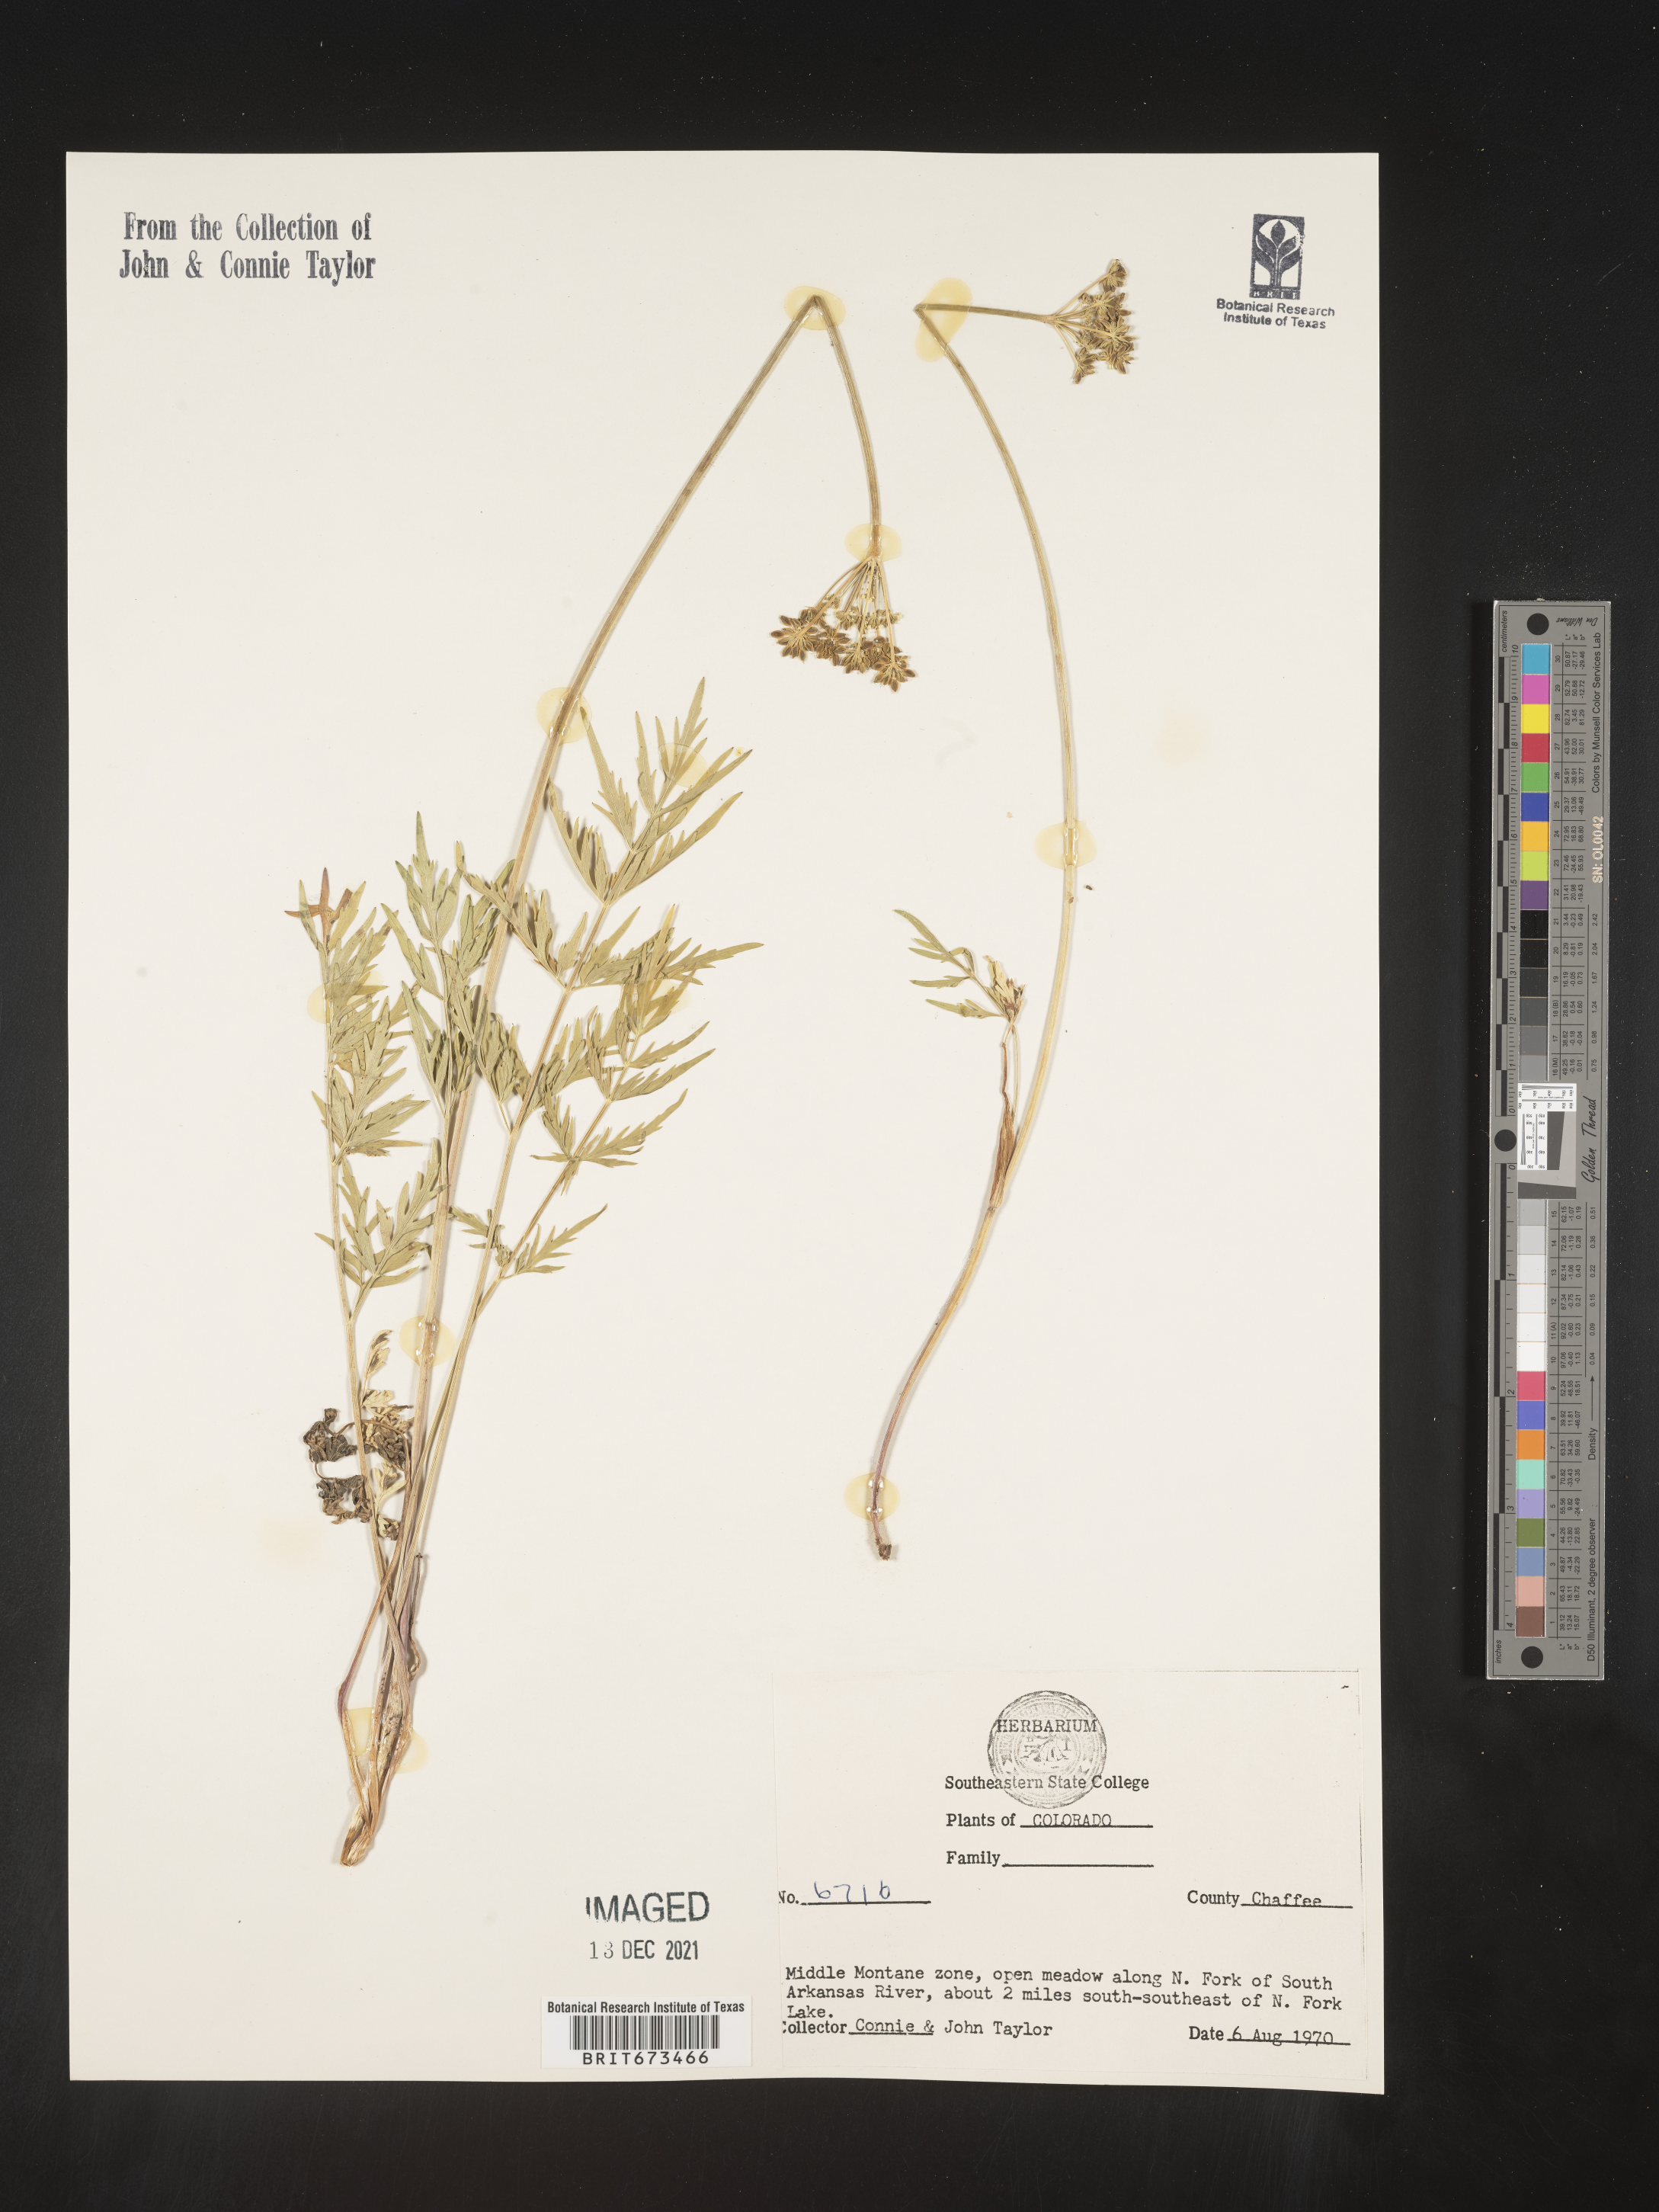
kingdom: Plantae
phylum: Tracheophyta
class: Magnoliopsida
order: Apiales
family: Apiaceae
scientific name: Apiaceae
